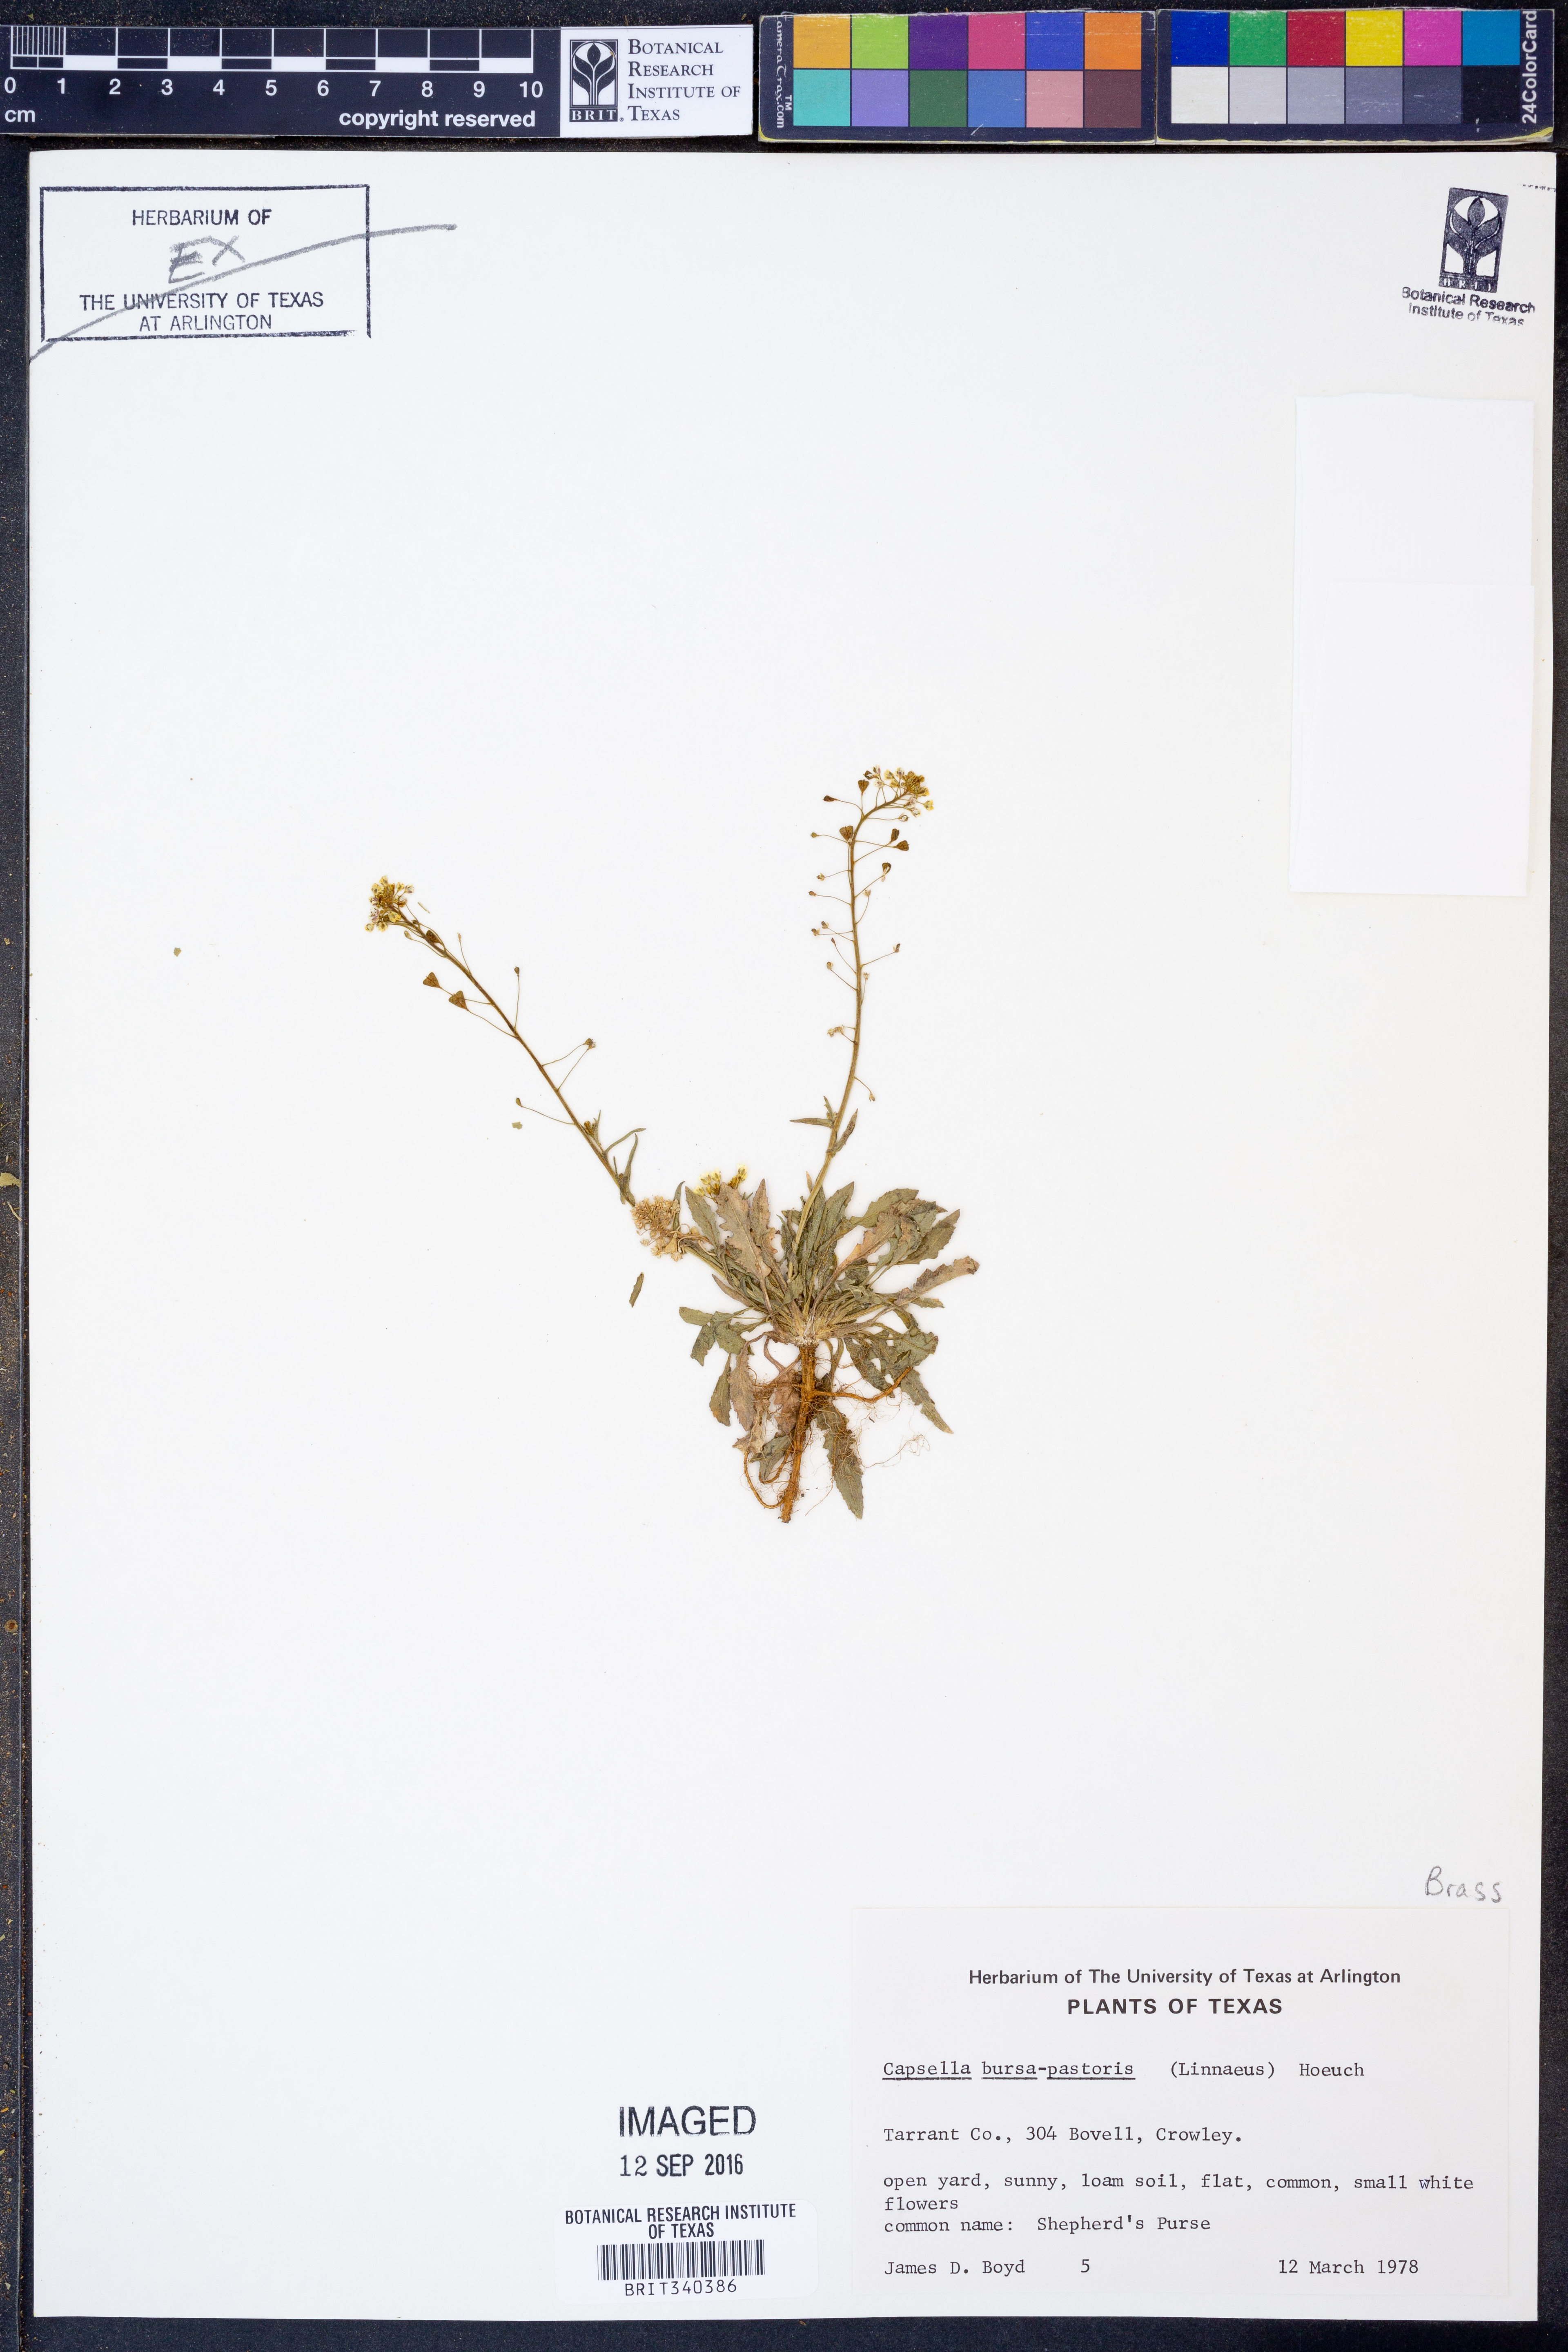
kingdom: Plantae
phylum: Tracheophyta
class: Magnoliopsida
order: Brassicales
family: Brassicaceae
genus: Capsella
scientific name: Capsella bursa-pastoris
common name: Shepherd's purse
